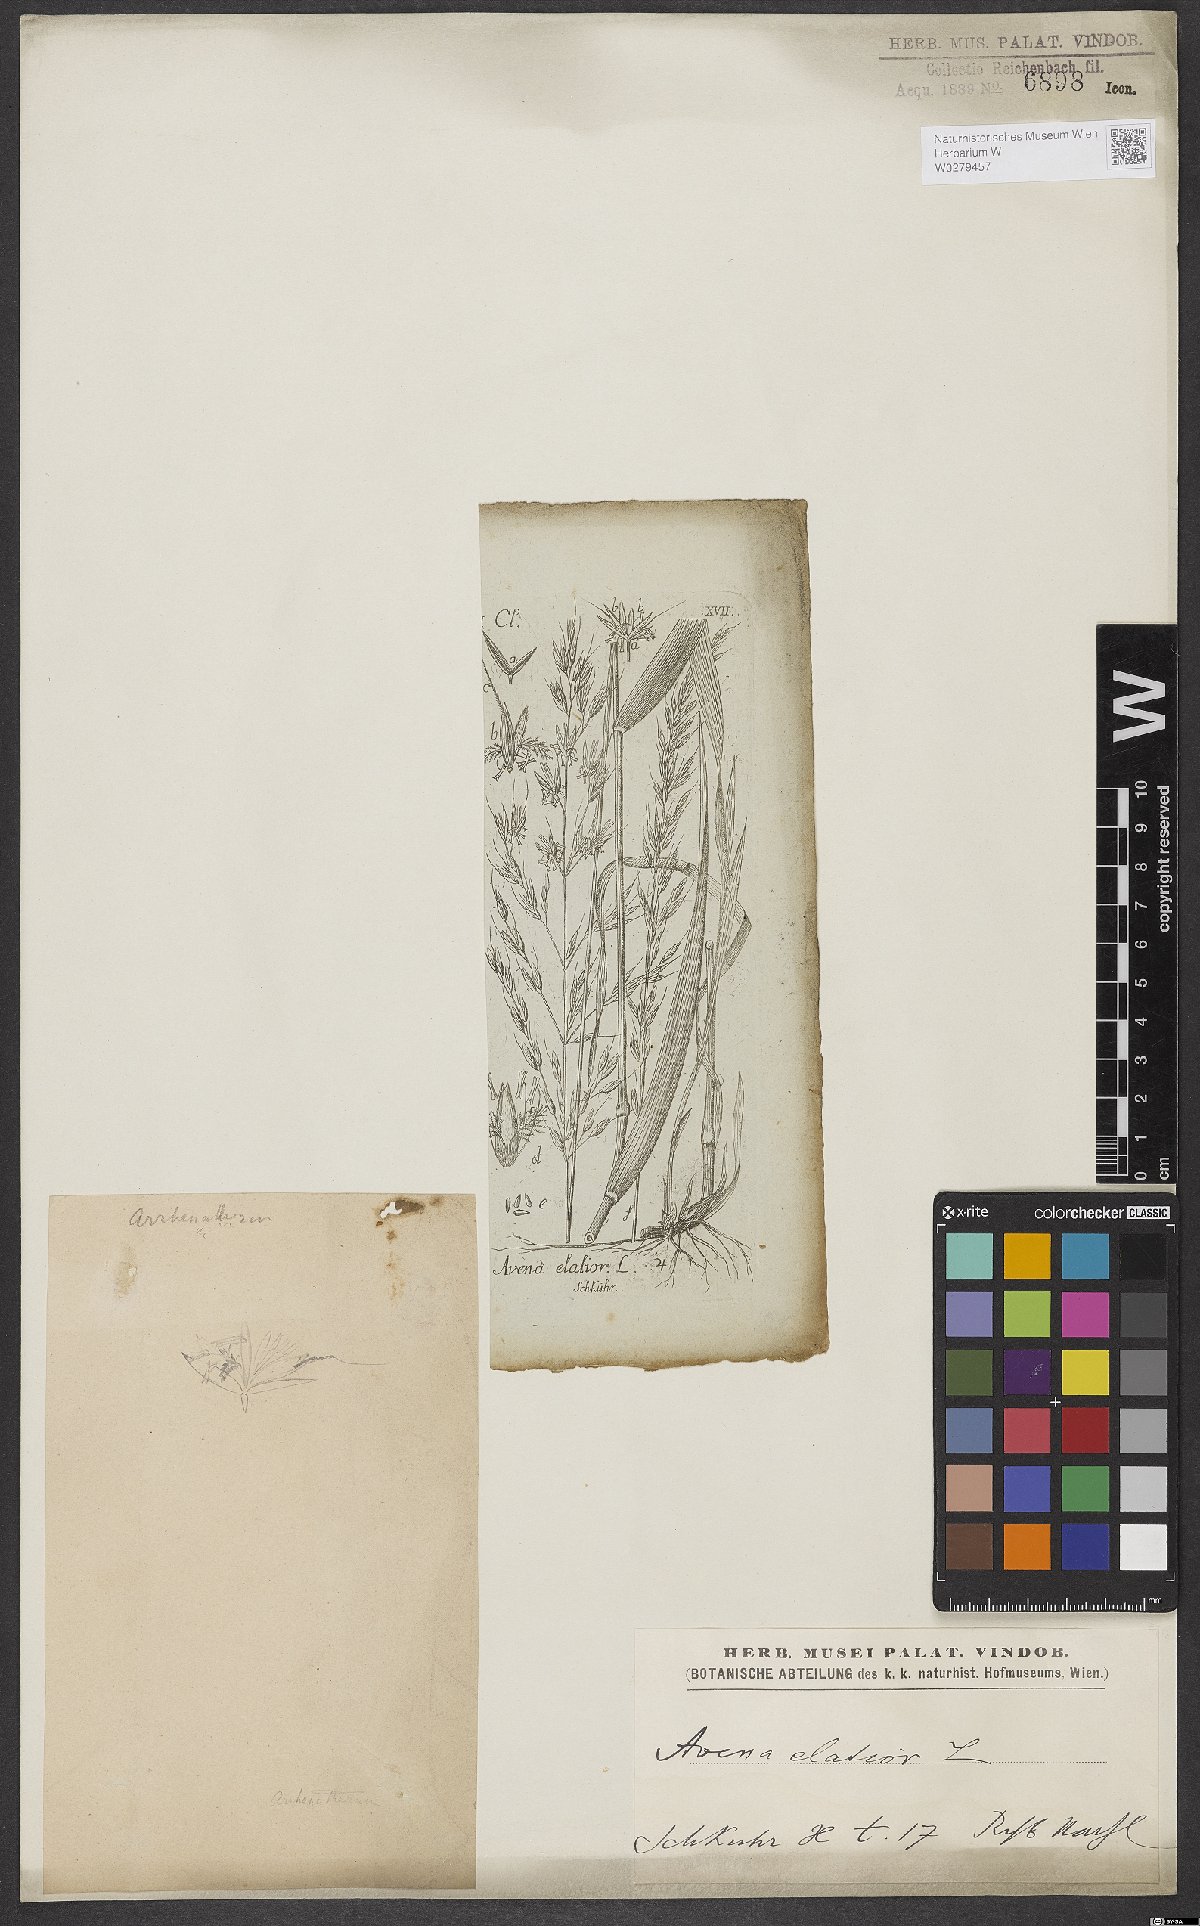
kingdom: Plantae
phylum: Tracheophyta
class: Liliopsida
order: Poales
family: Poaceae
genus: Arrhenatherum
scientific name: Arrhenatherum elatius
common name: Tall oatgrass
